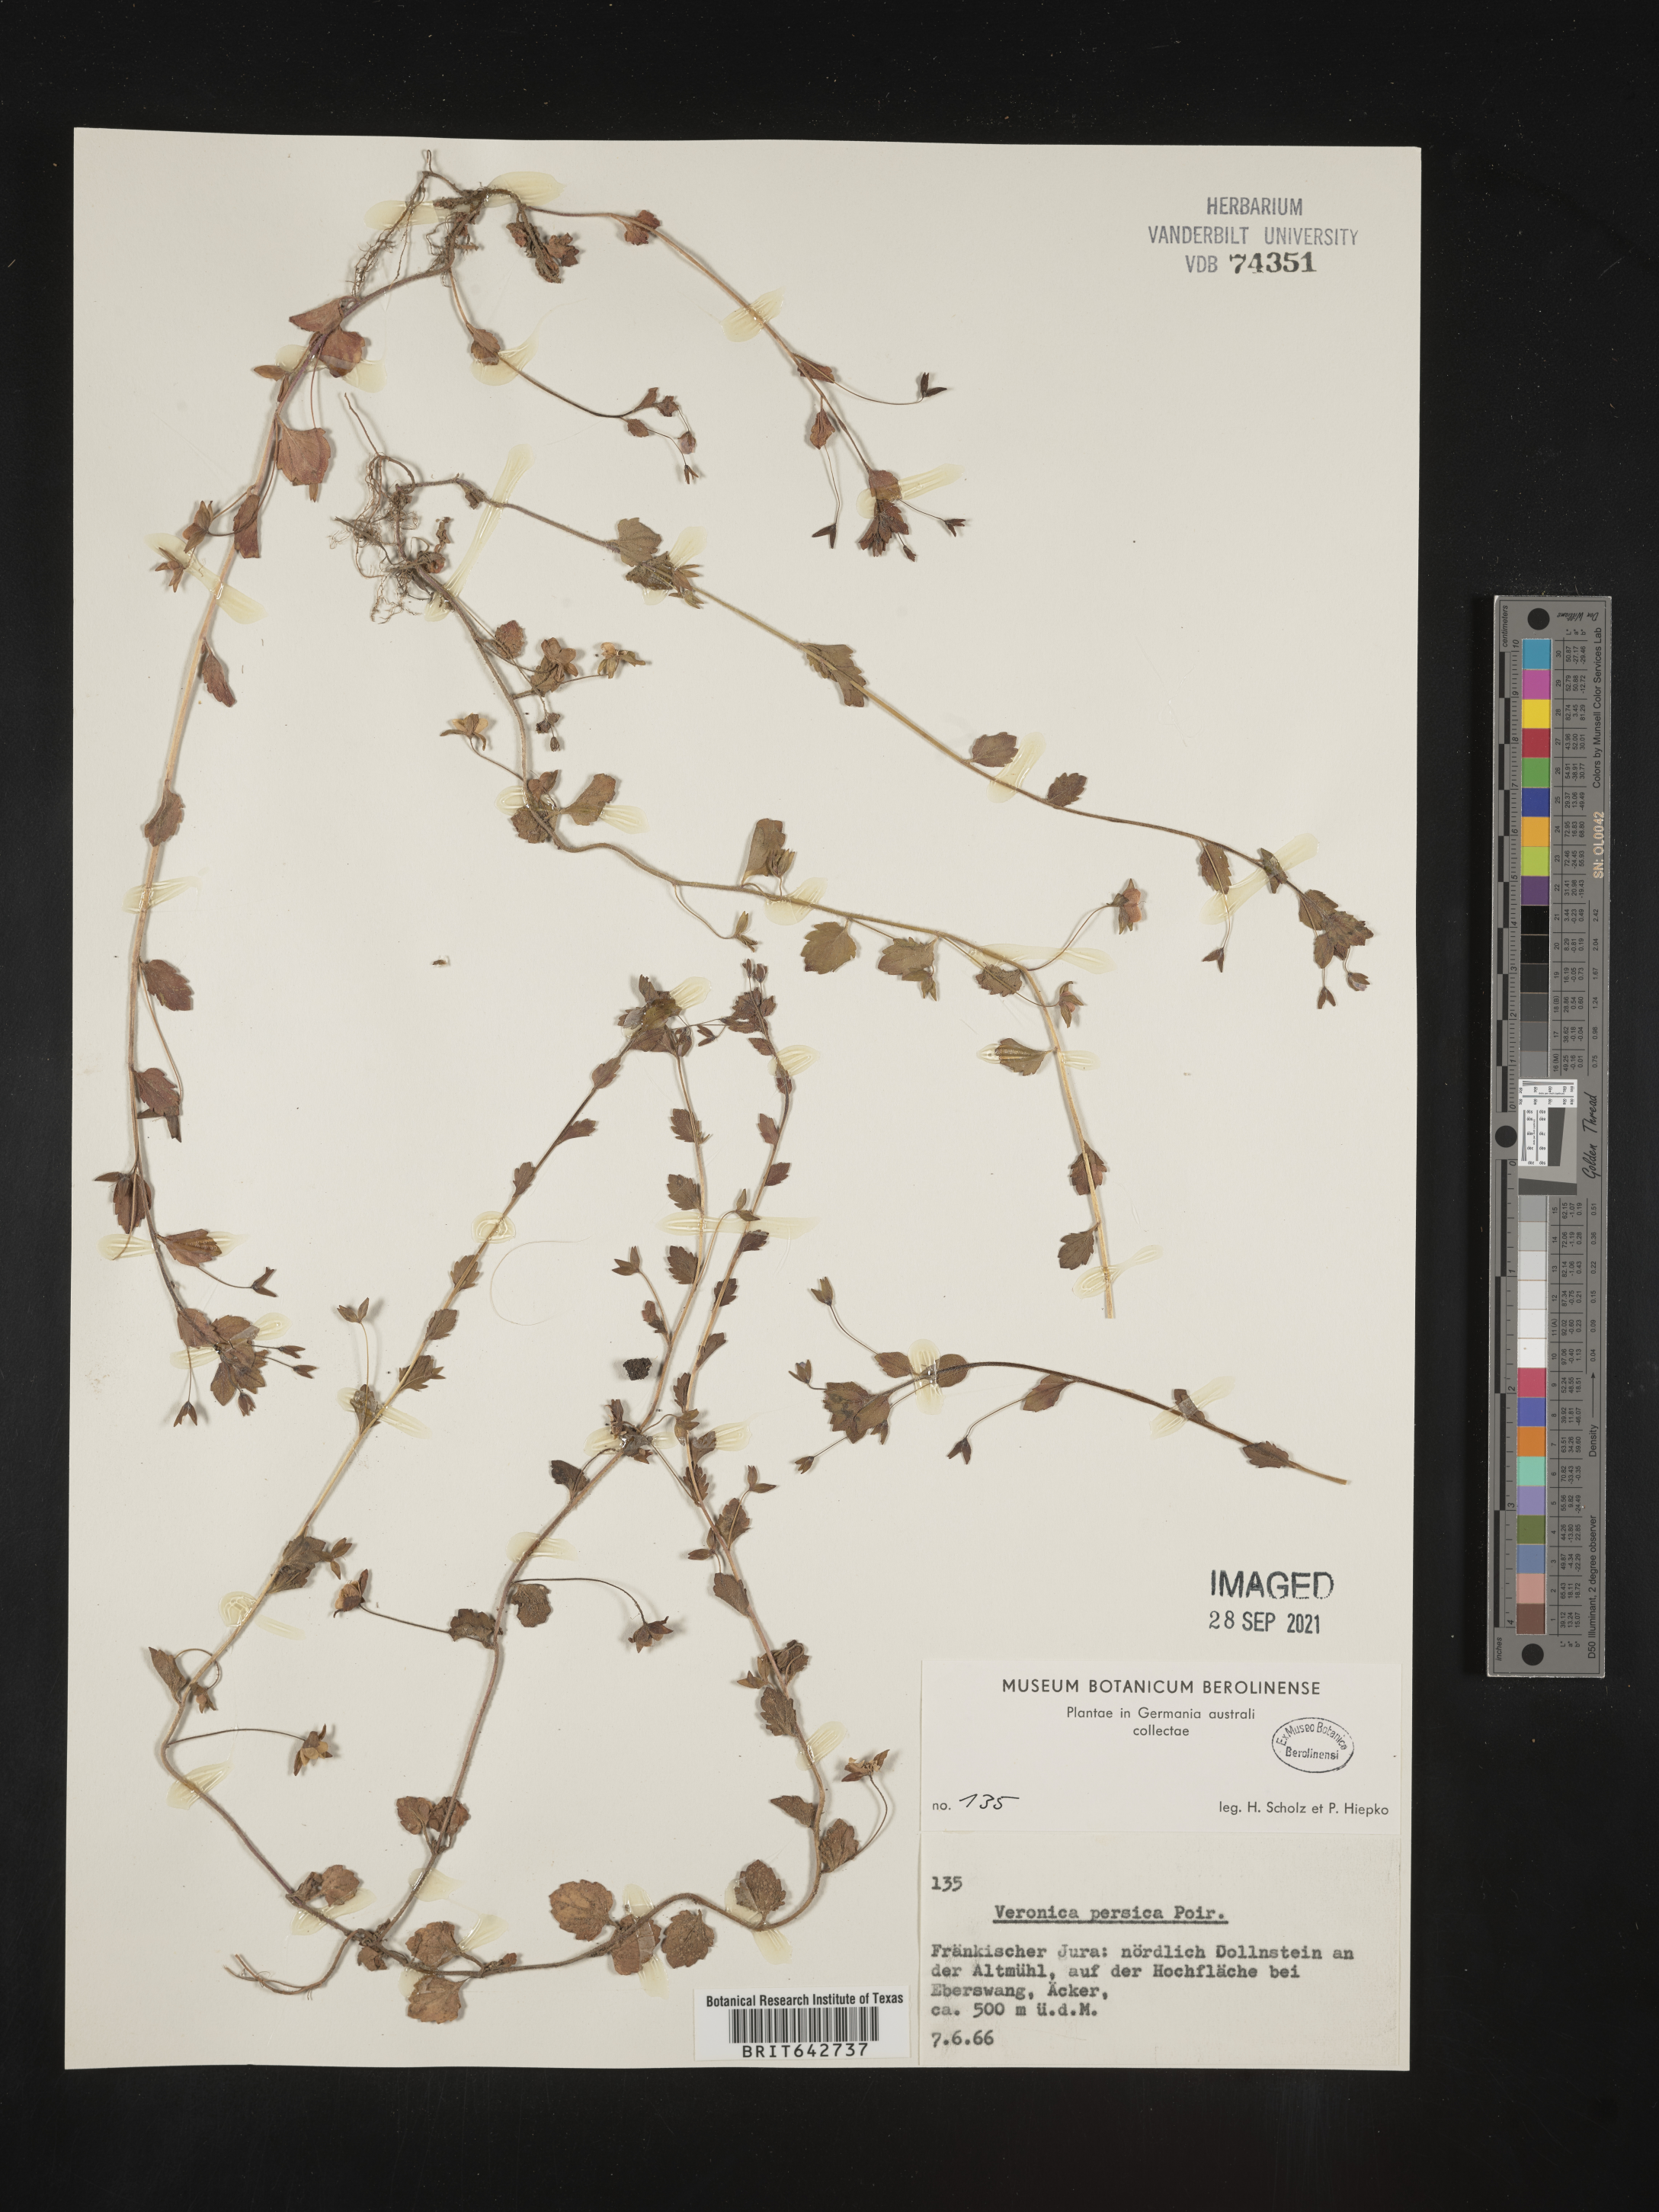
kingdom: Plantae
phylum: Tracheophyta
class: Magnoliopsida
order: Lamiales
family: Plantaginaceae
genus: Veronica
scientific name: Veronica
